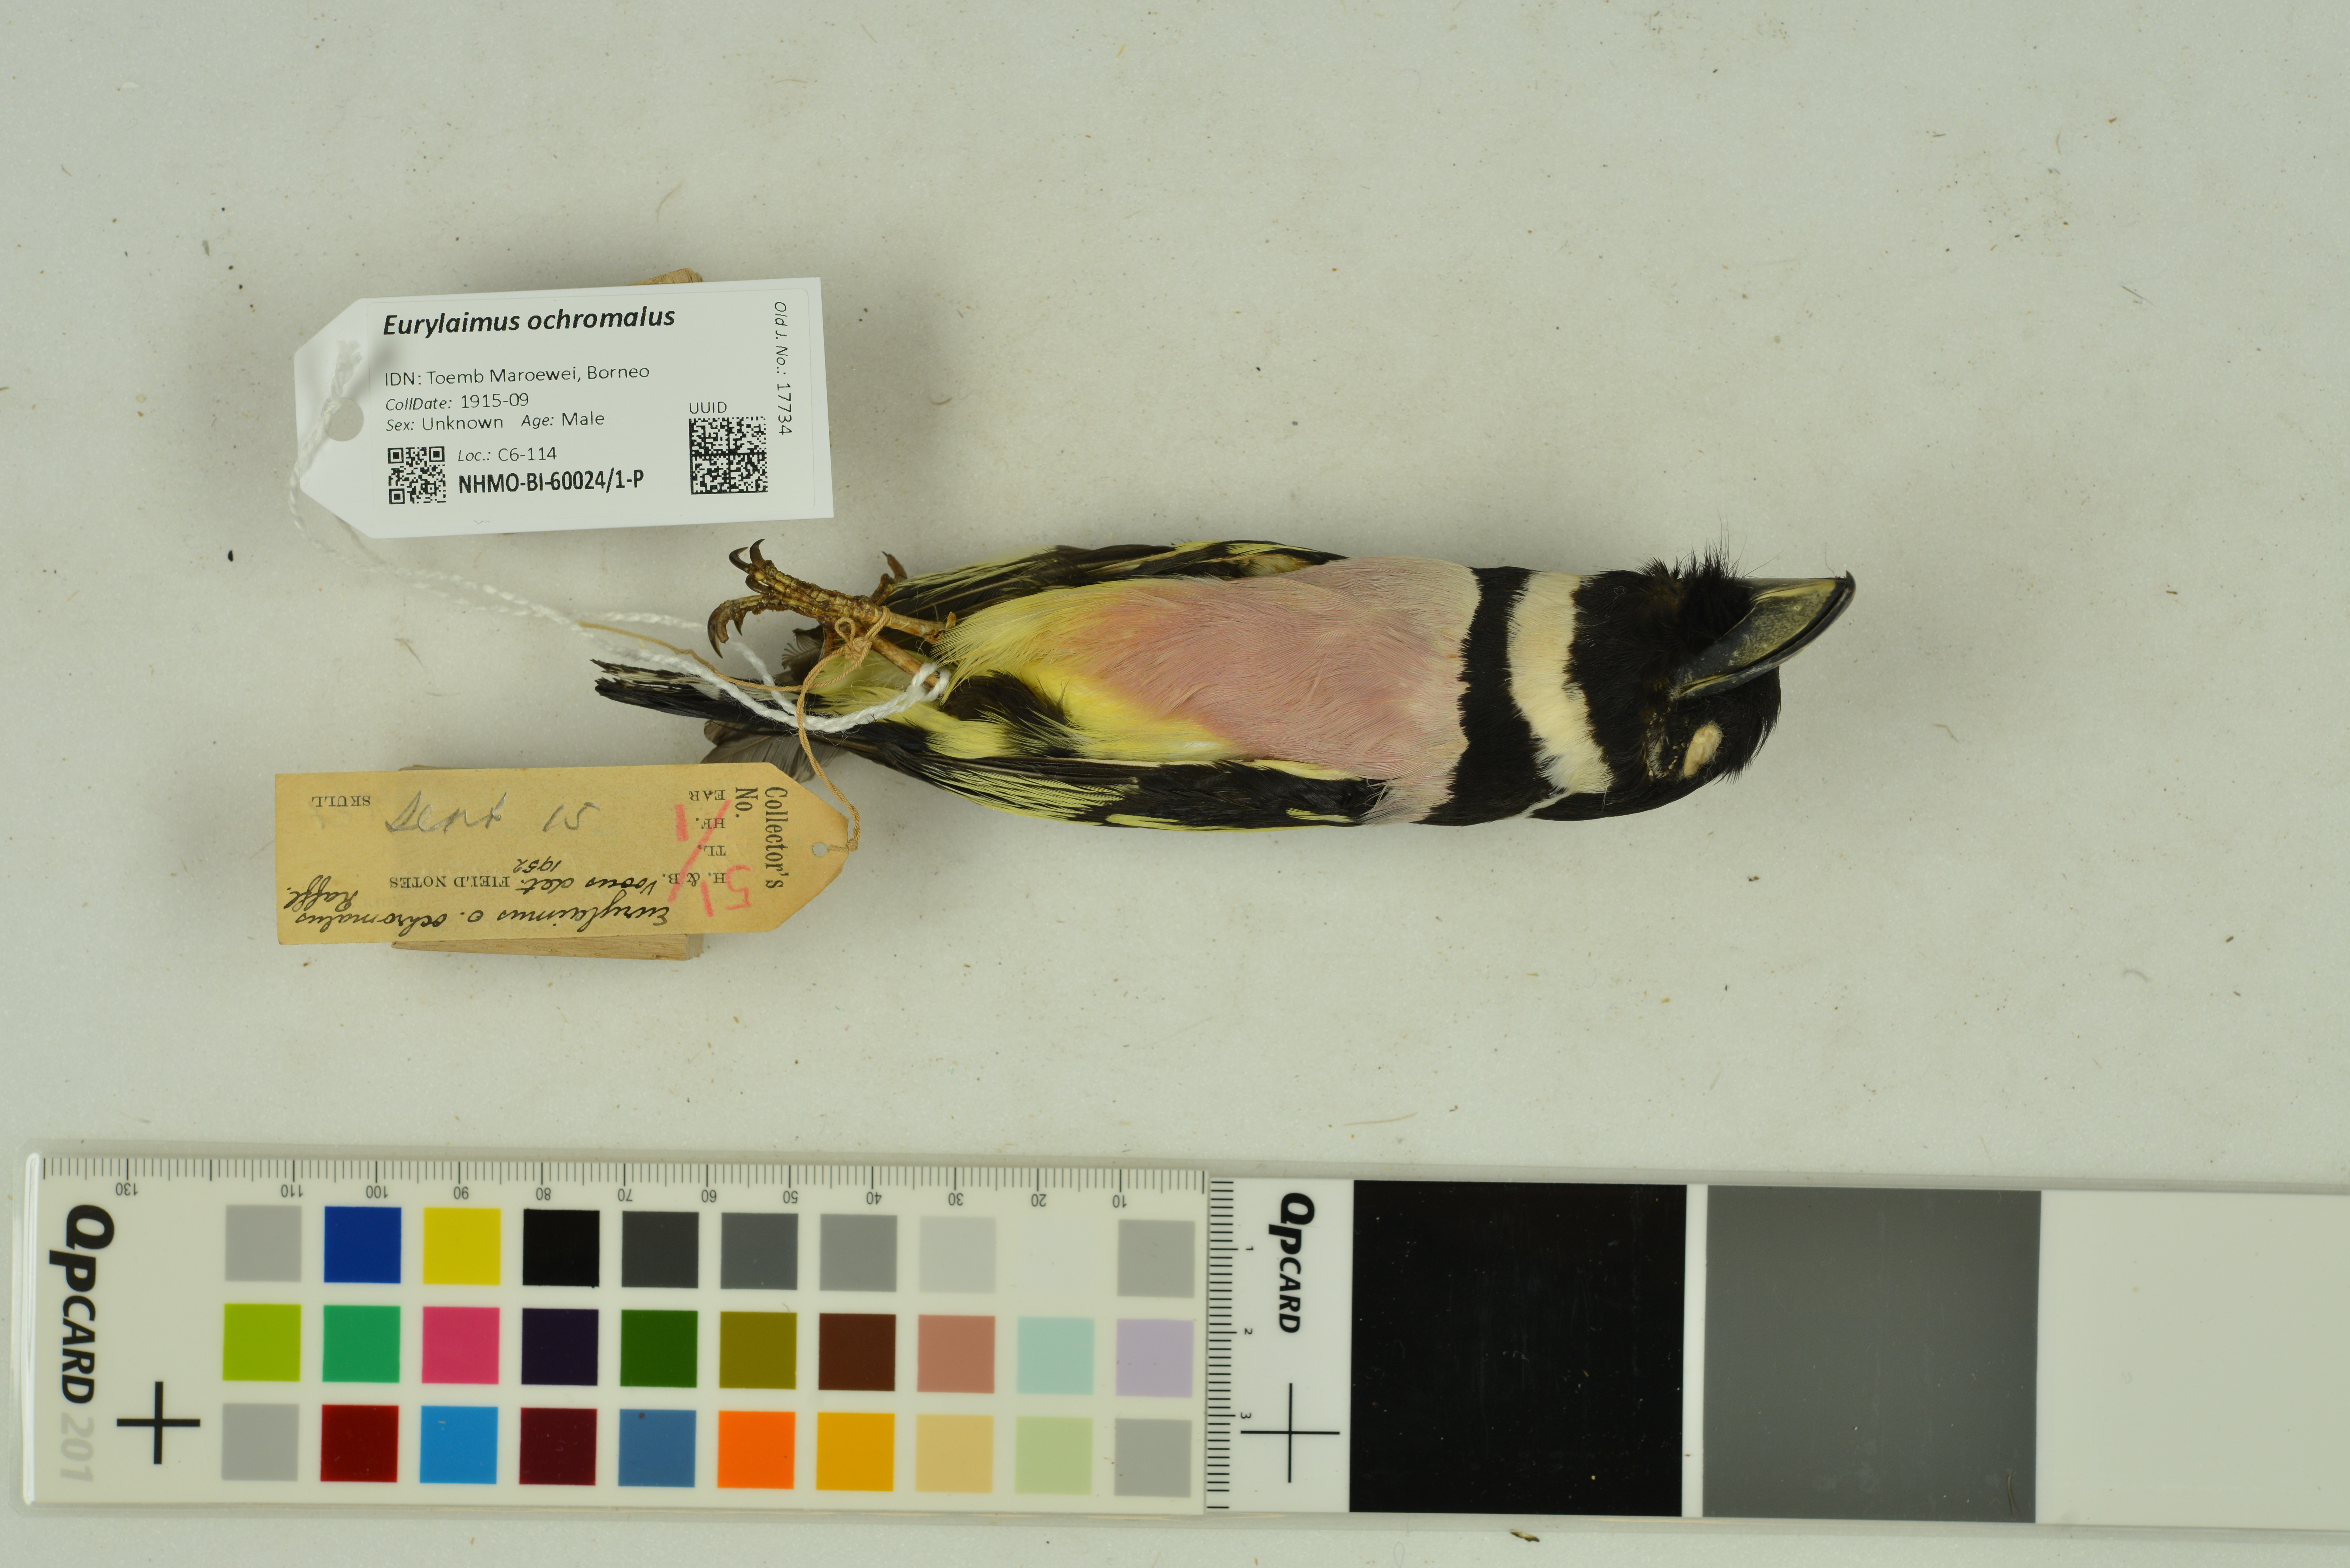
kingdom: Animalia
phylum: Chordata
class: Aves
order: Passeriformes
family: Eurylaimidae
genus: Eurylaimus
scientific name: Eurylaimus ochromalus
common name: Black-and-yellow broadbill
